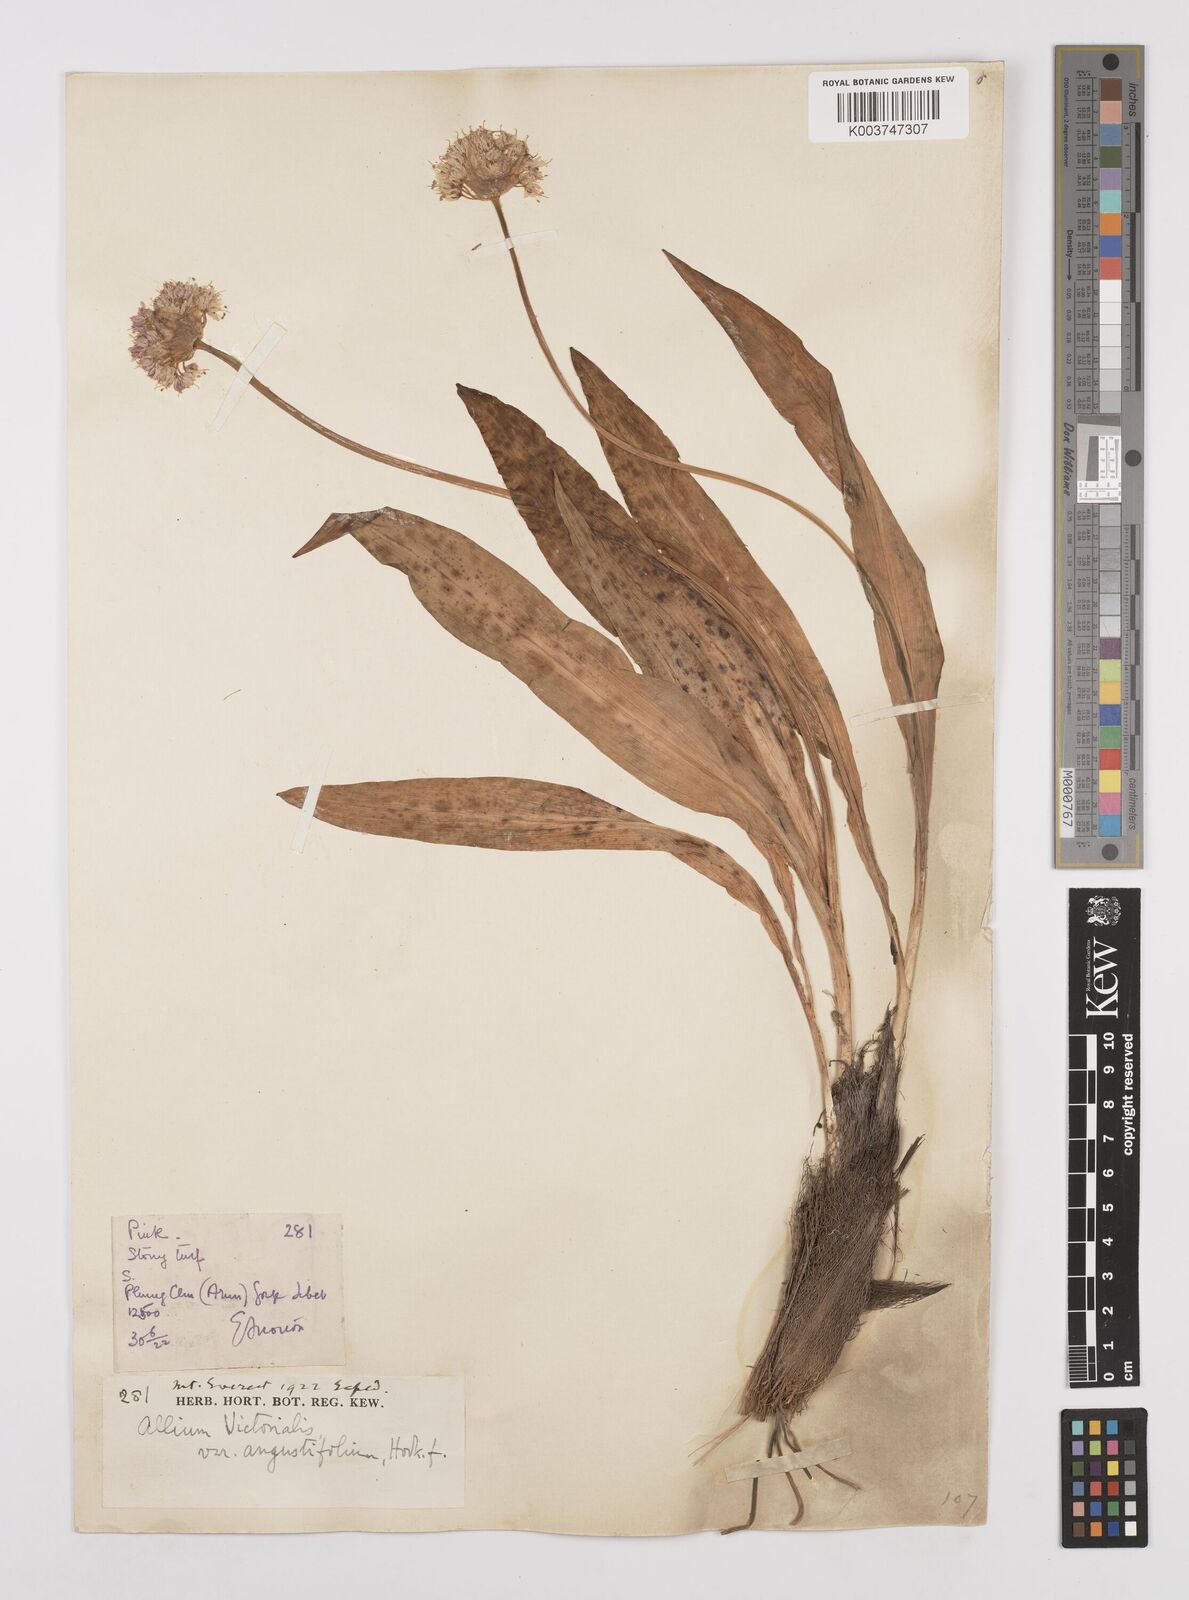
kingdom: Plantae
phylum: Tracheophyta
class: Liliopsida
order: Asparagales
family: Amaryllidaceae
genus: Allium
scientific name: Allium prattii
